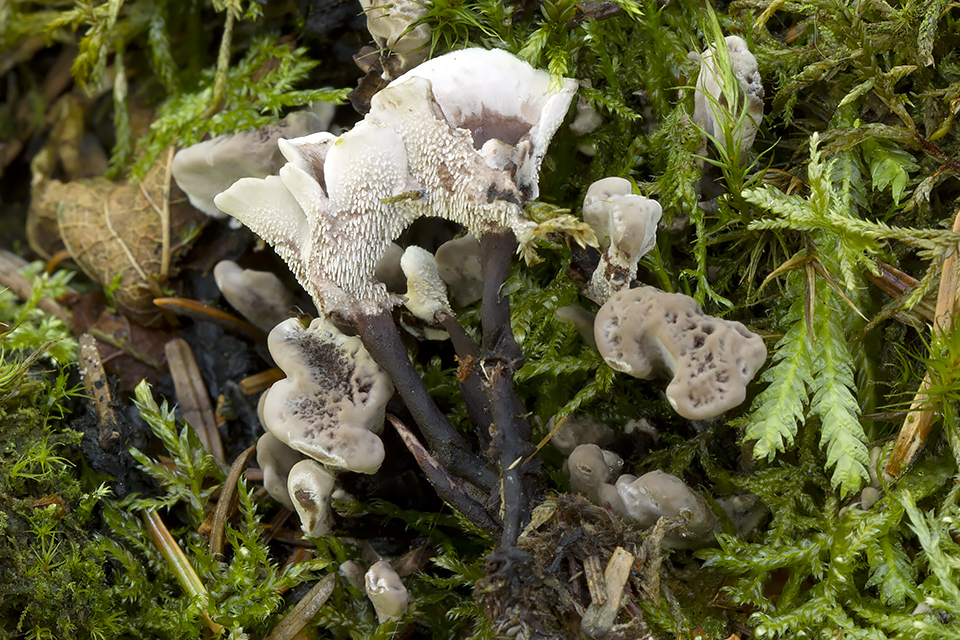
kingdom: Fungi
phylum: Basidiomycota
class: Agaricomycetes
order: Thelephorales
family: Thelephoraceae
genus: Phellodon
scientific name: Phellodon tomentosus
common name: vellugtende duftpigsvamp
